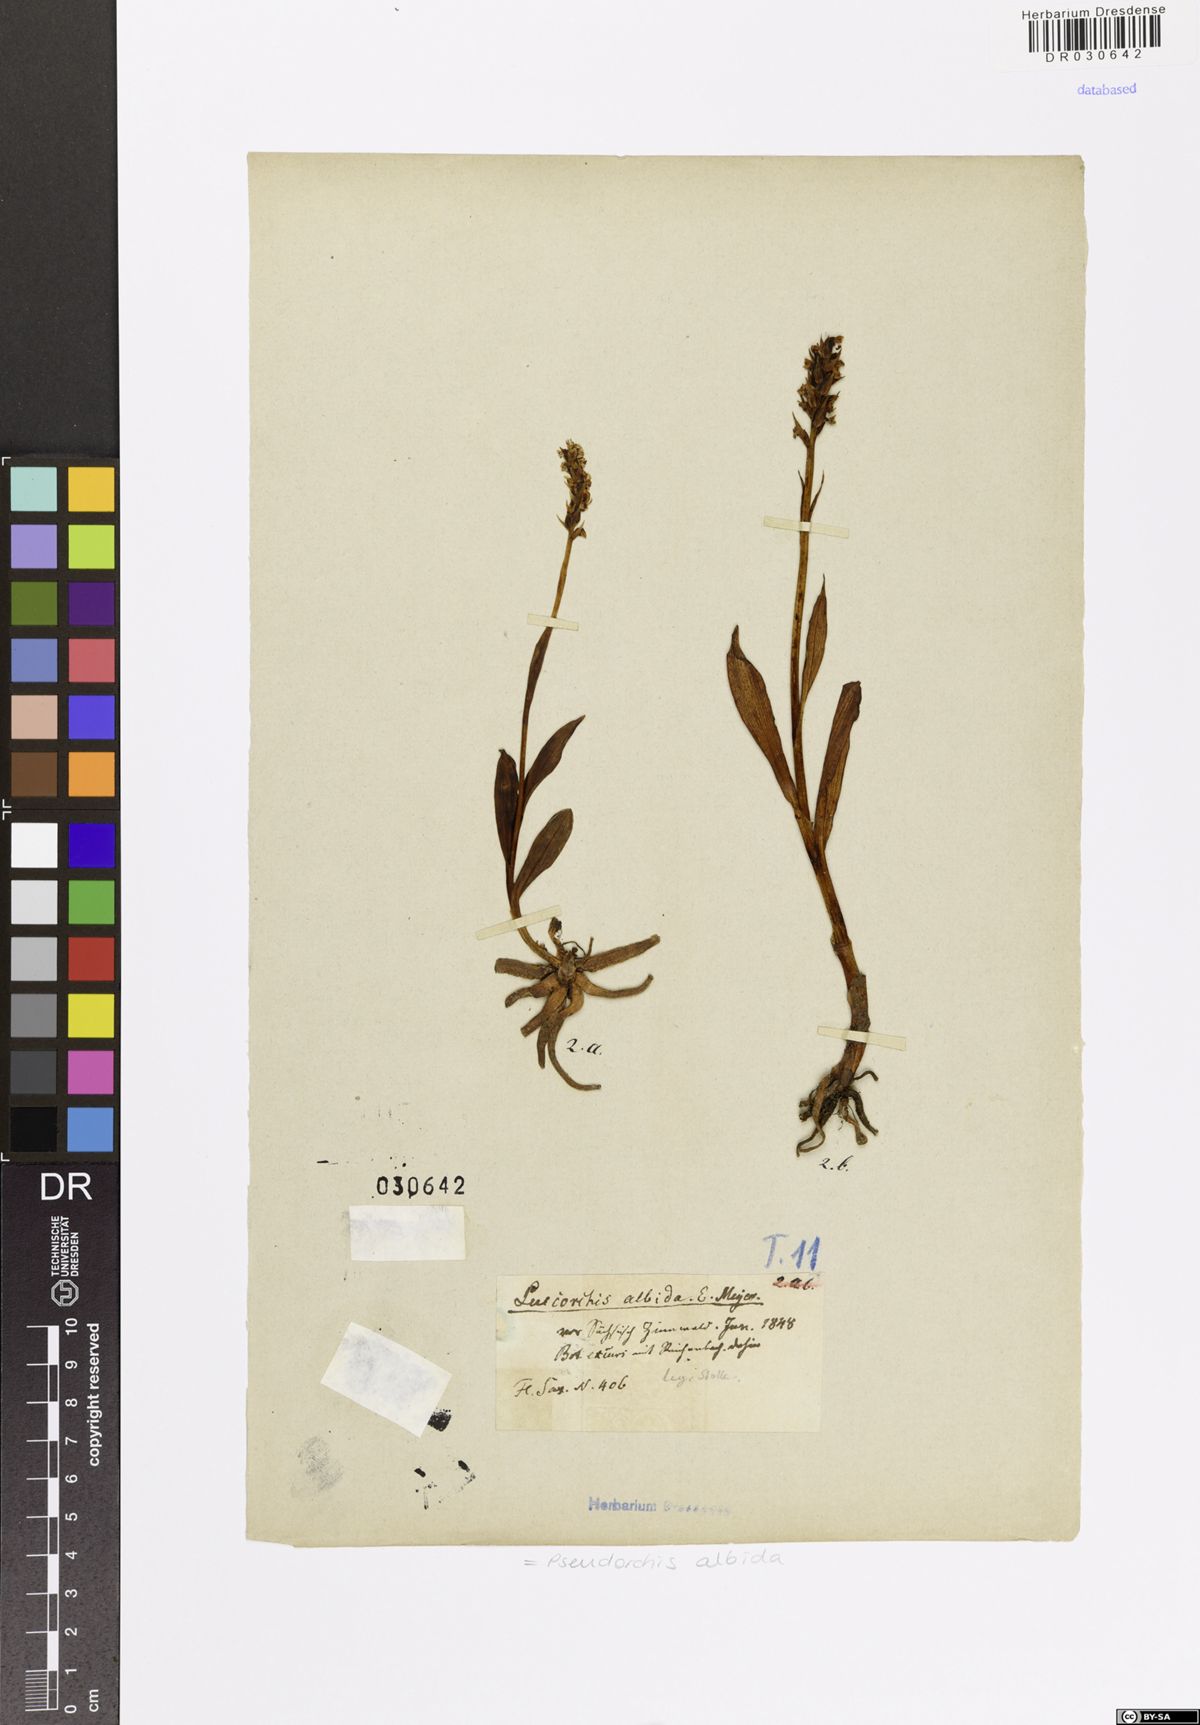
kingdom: Plantae
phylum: Tracheophyta
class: Liliopsida
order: Asparagales
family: Orchidaceae
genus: Pseudorchis
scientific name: Pseudorchis albida
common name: Small-white orchid
